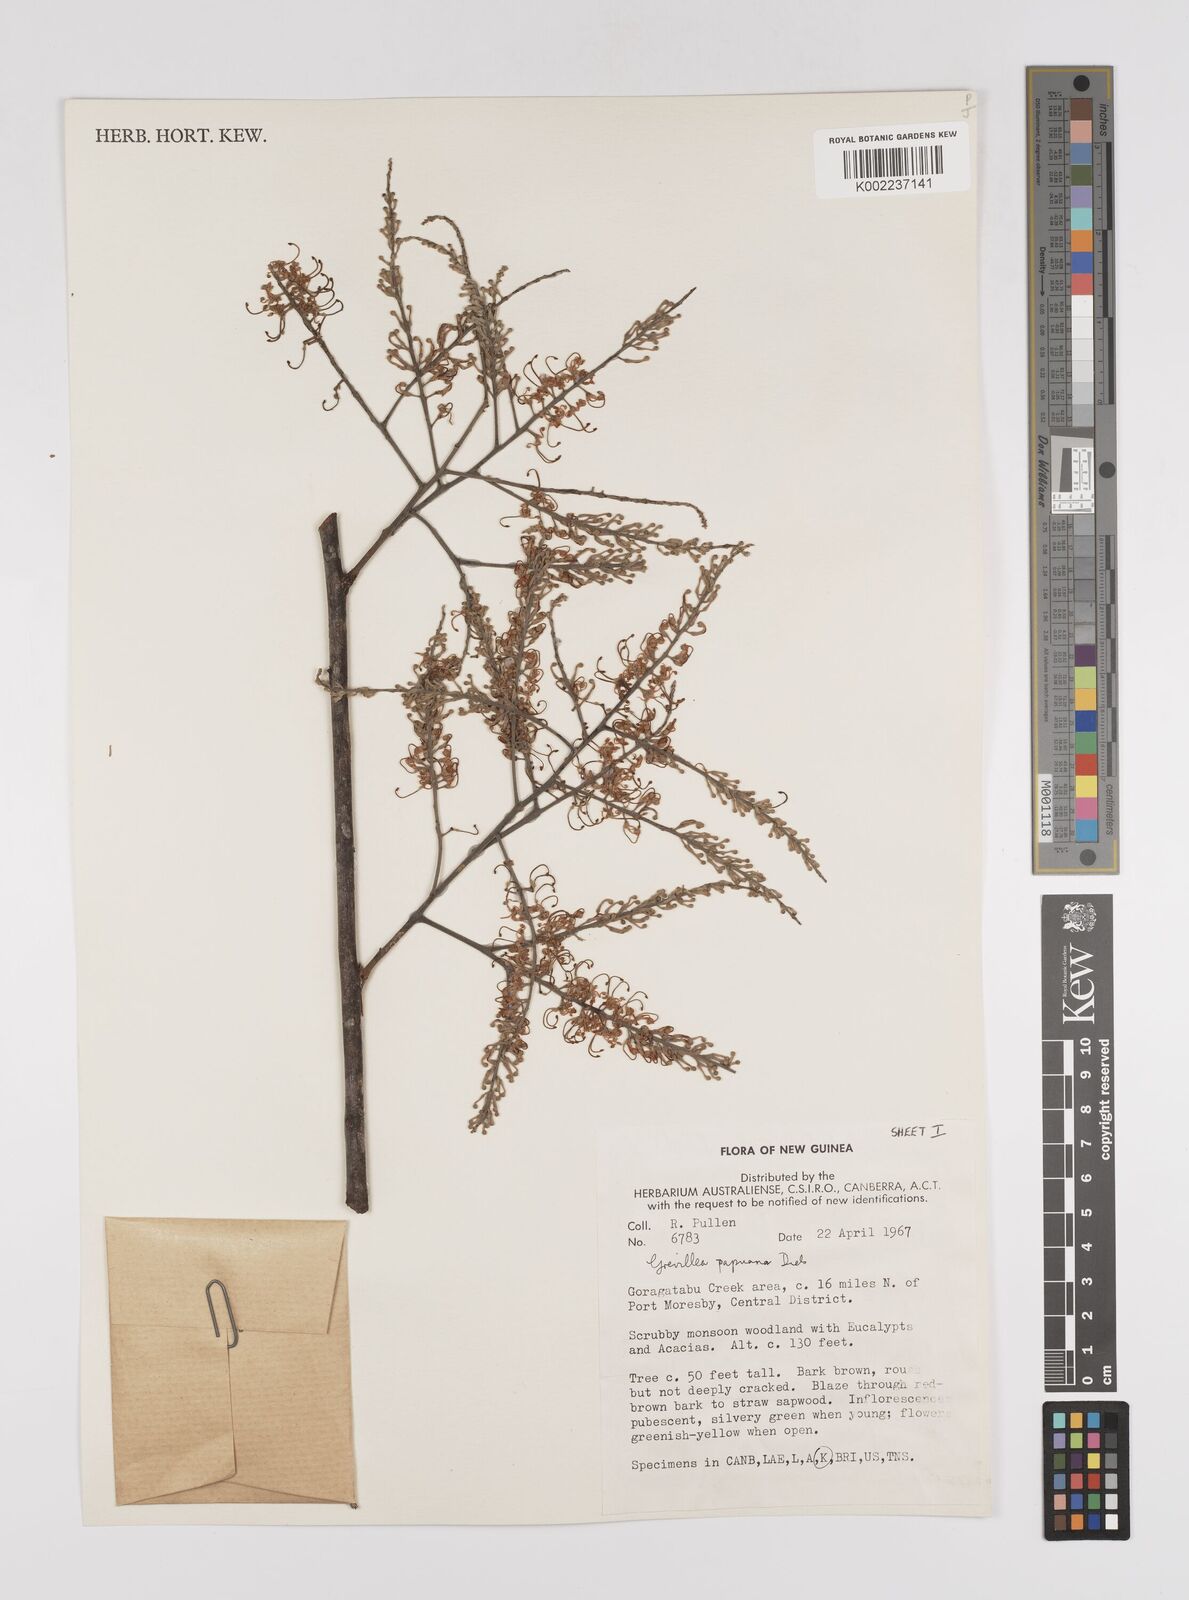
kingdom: Plantae
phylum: Tracheophyta
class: Magnoliopsida
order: Proteales
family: Proteaceae
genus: Grevillea
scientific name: Grevillea papuana
